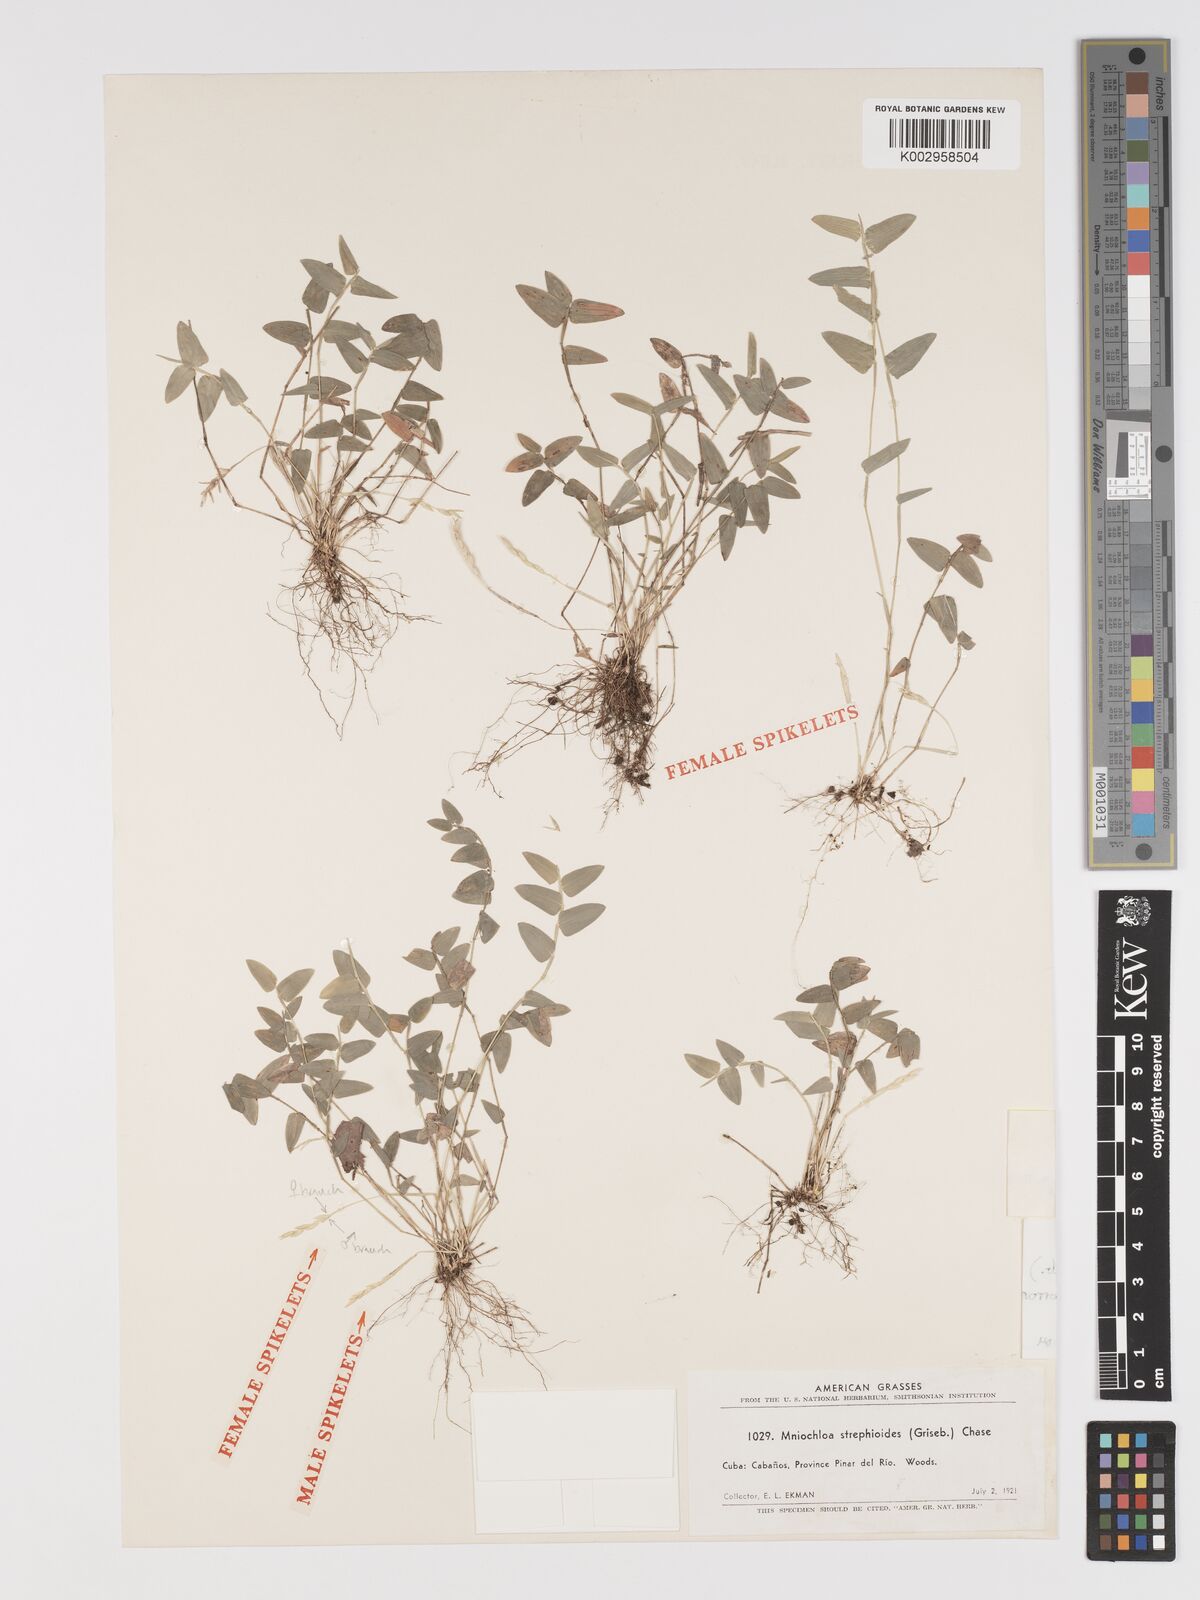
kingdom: Plantae
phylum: Tracheophyta
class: Liliopsida
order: Poales
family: Poaceae
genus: Piresiella
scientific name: Piresiella strephioides
